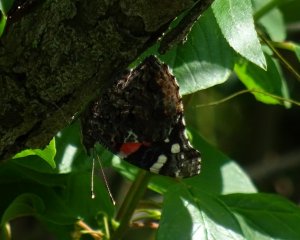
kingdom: Animalia
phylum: Arthropoda
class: Insecta
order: Lepidoptera
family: Nymphalidae
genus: Vanessa
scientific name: Vanessa atalanta
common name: Red Admiral
